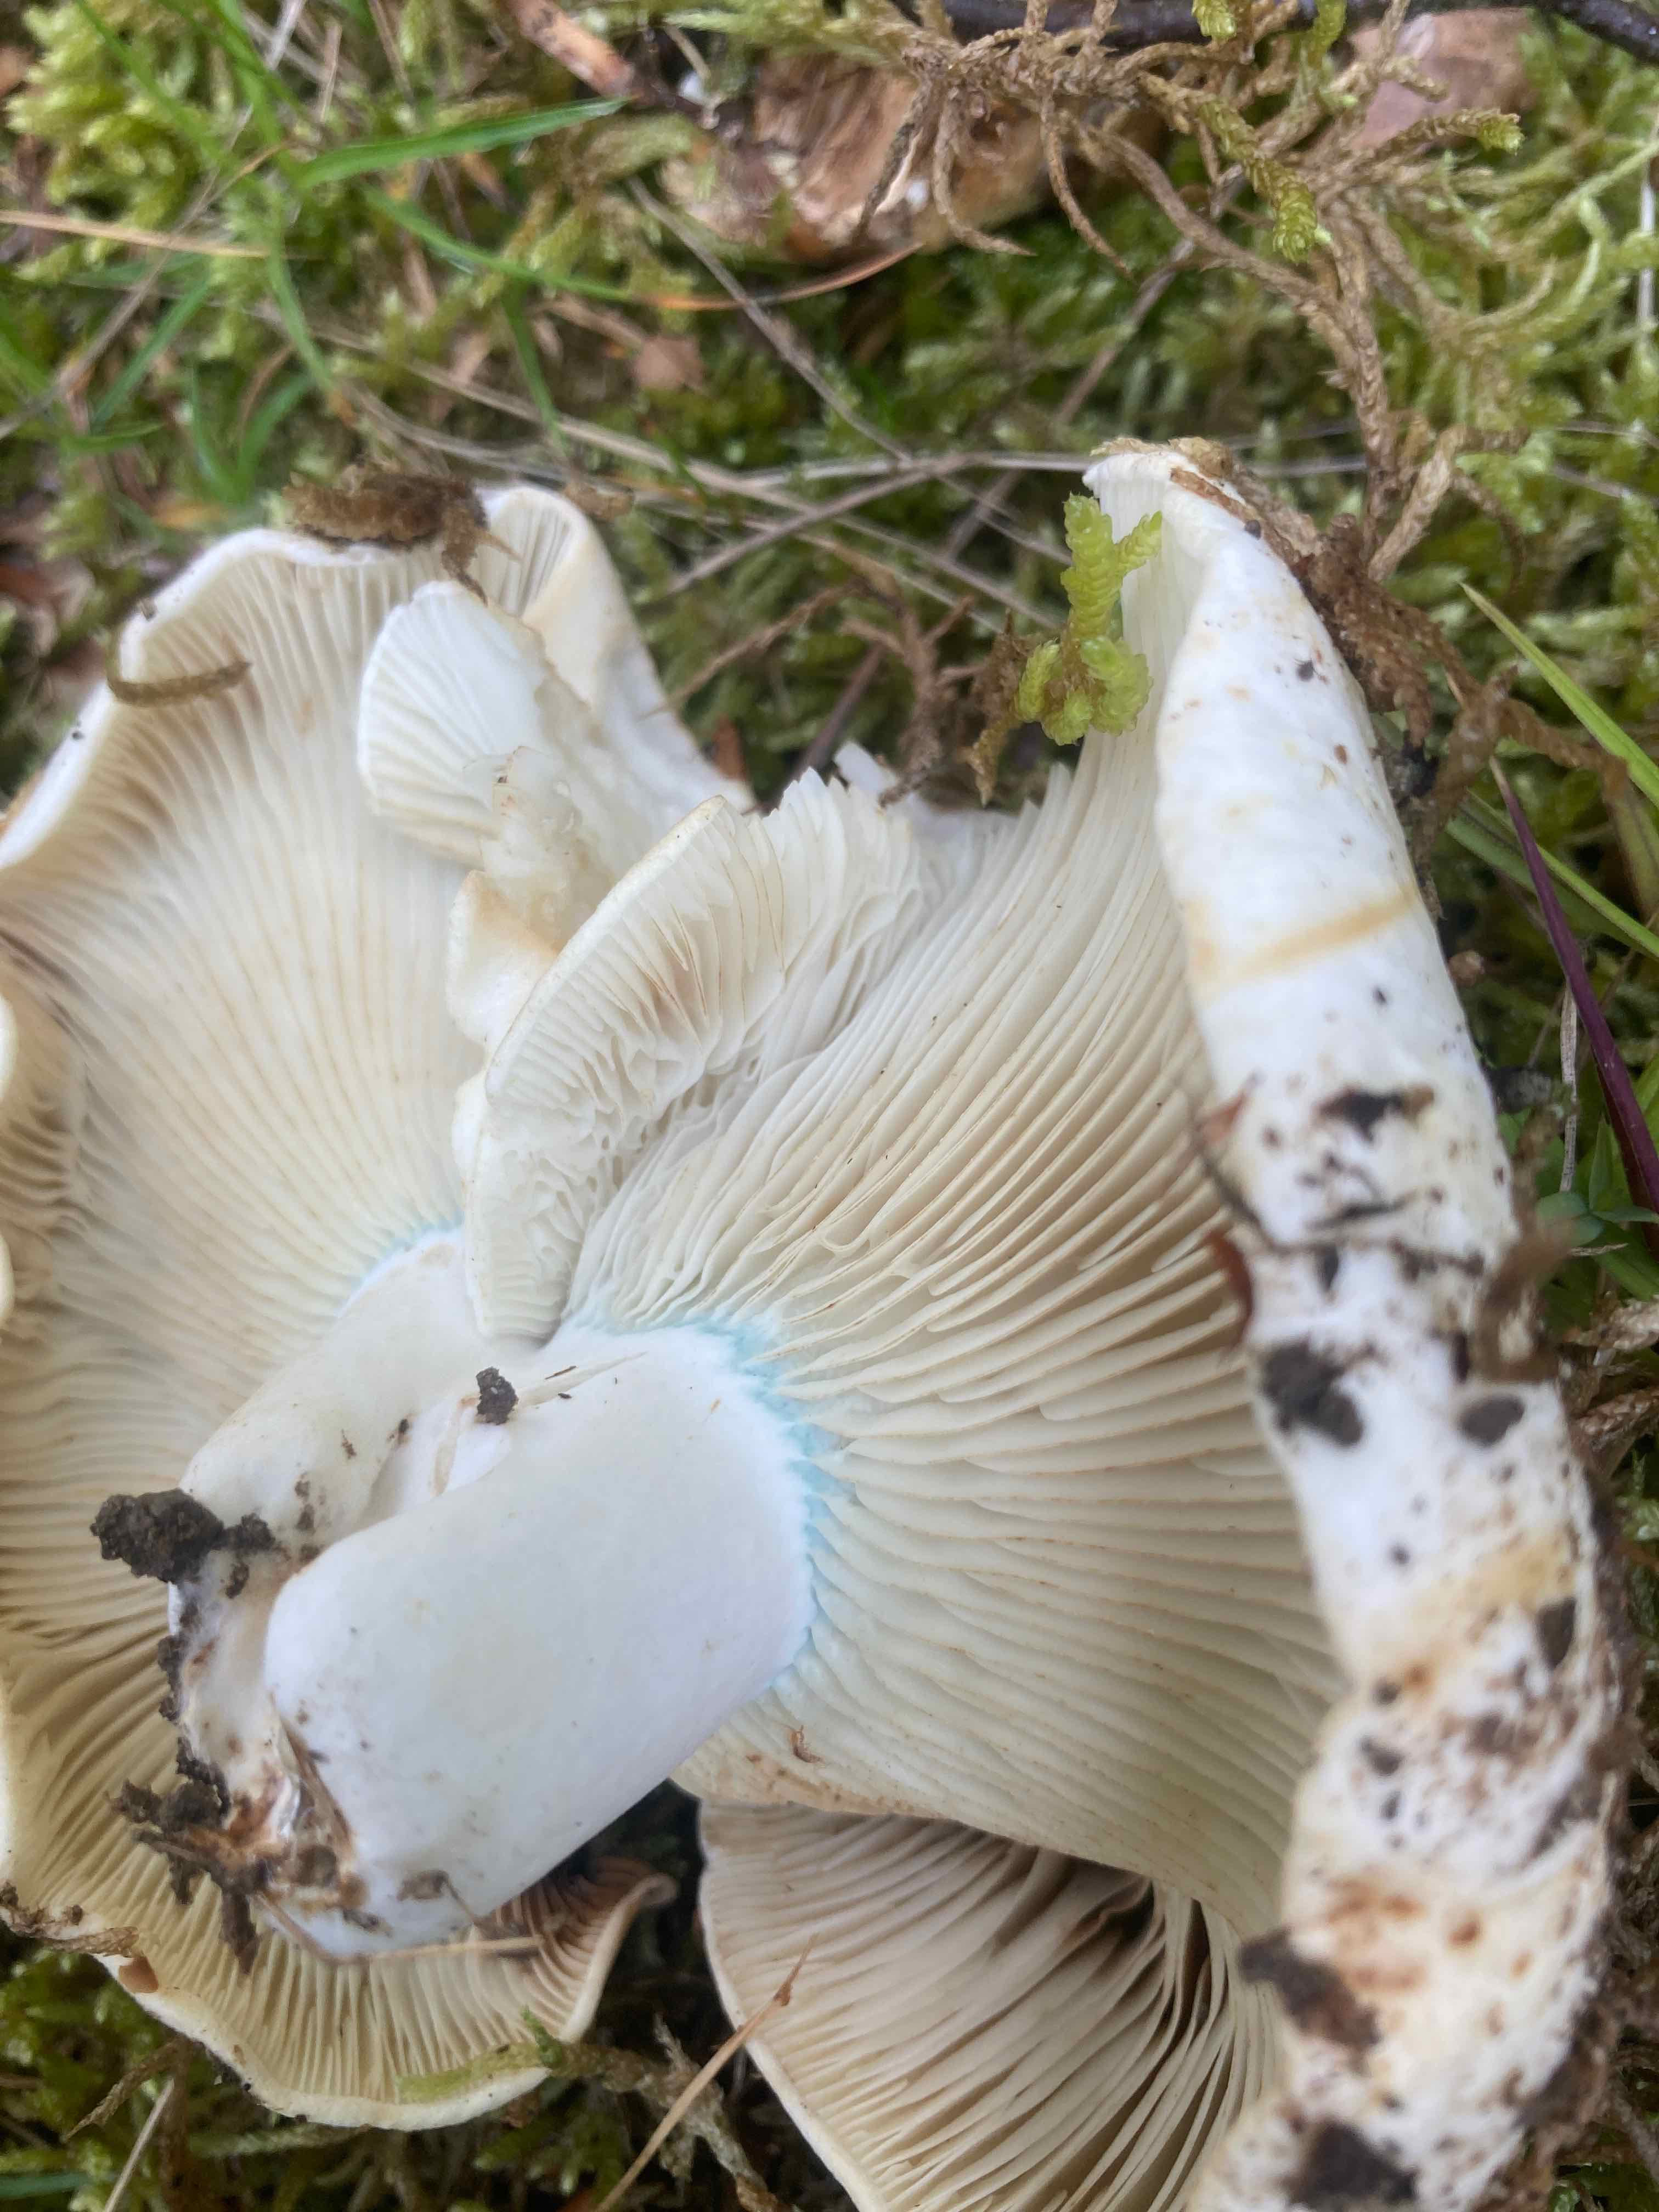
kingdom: Fungi
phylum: Basidiomycota
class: Agaricomycetes
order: Russulales
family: Russulaceae
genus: Russula
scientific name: Russula chloroides
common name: grønhalset tragt-skørhat
